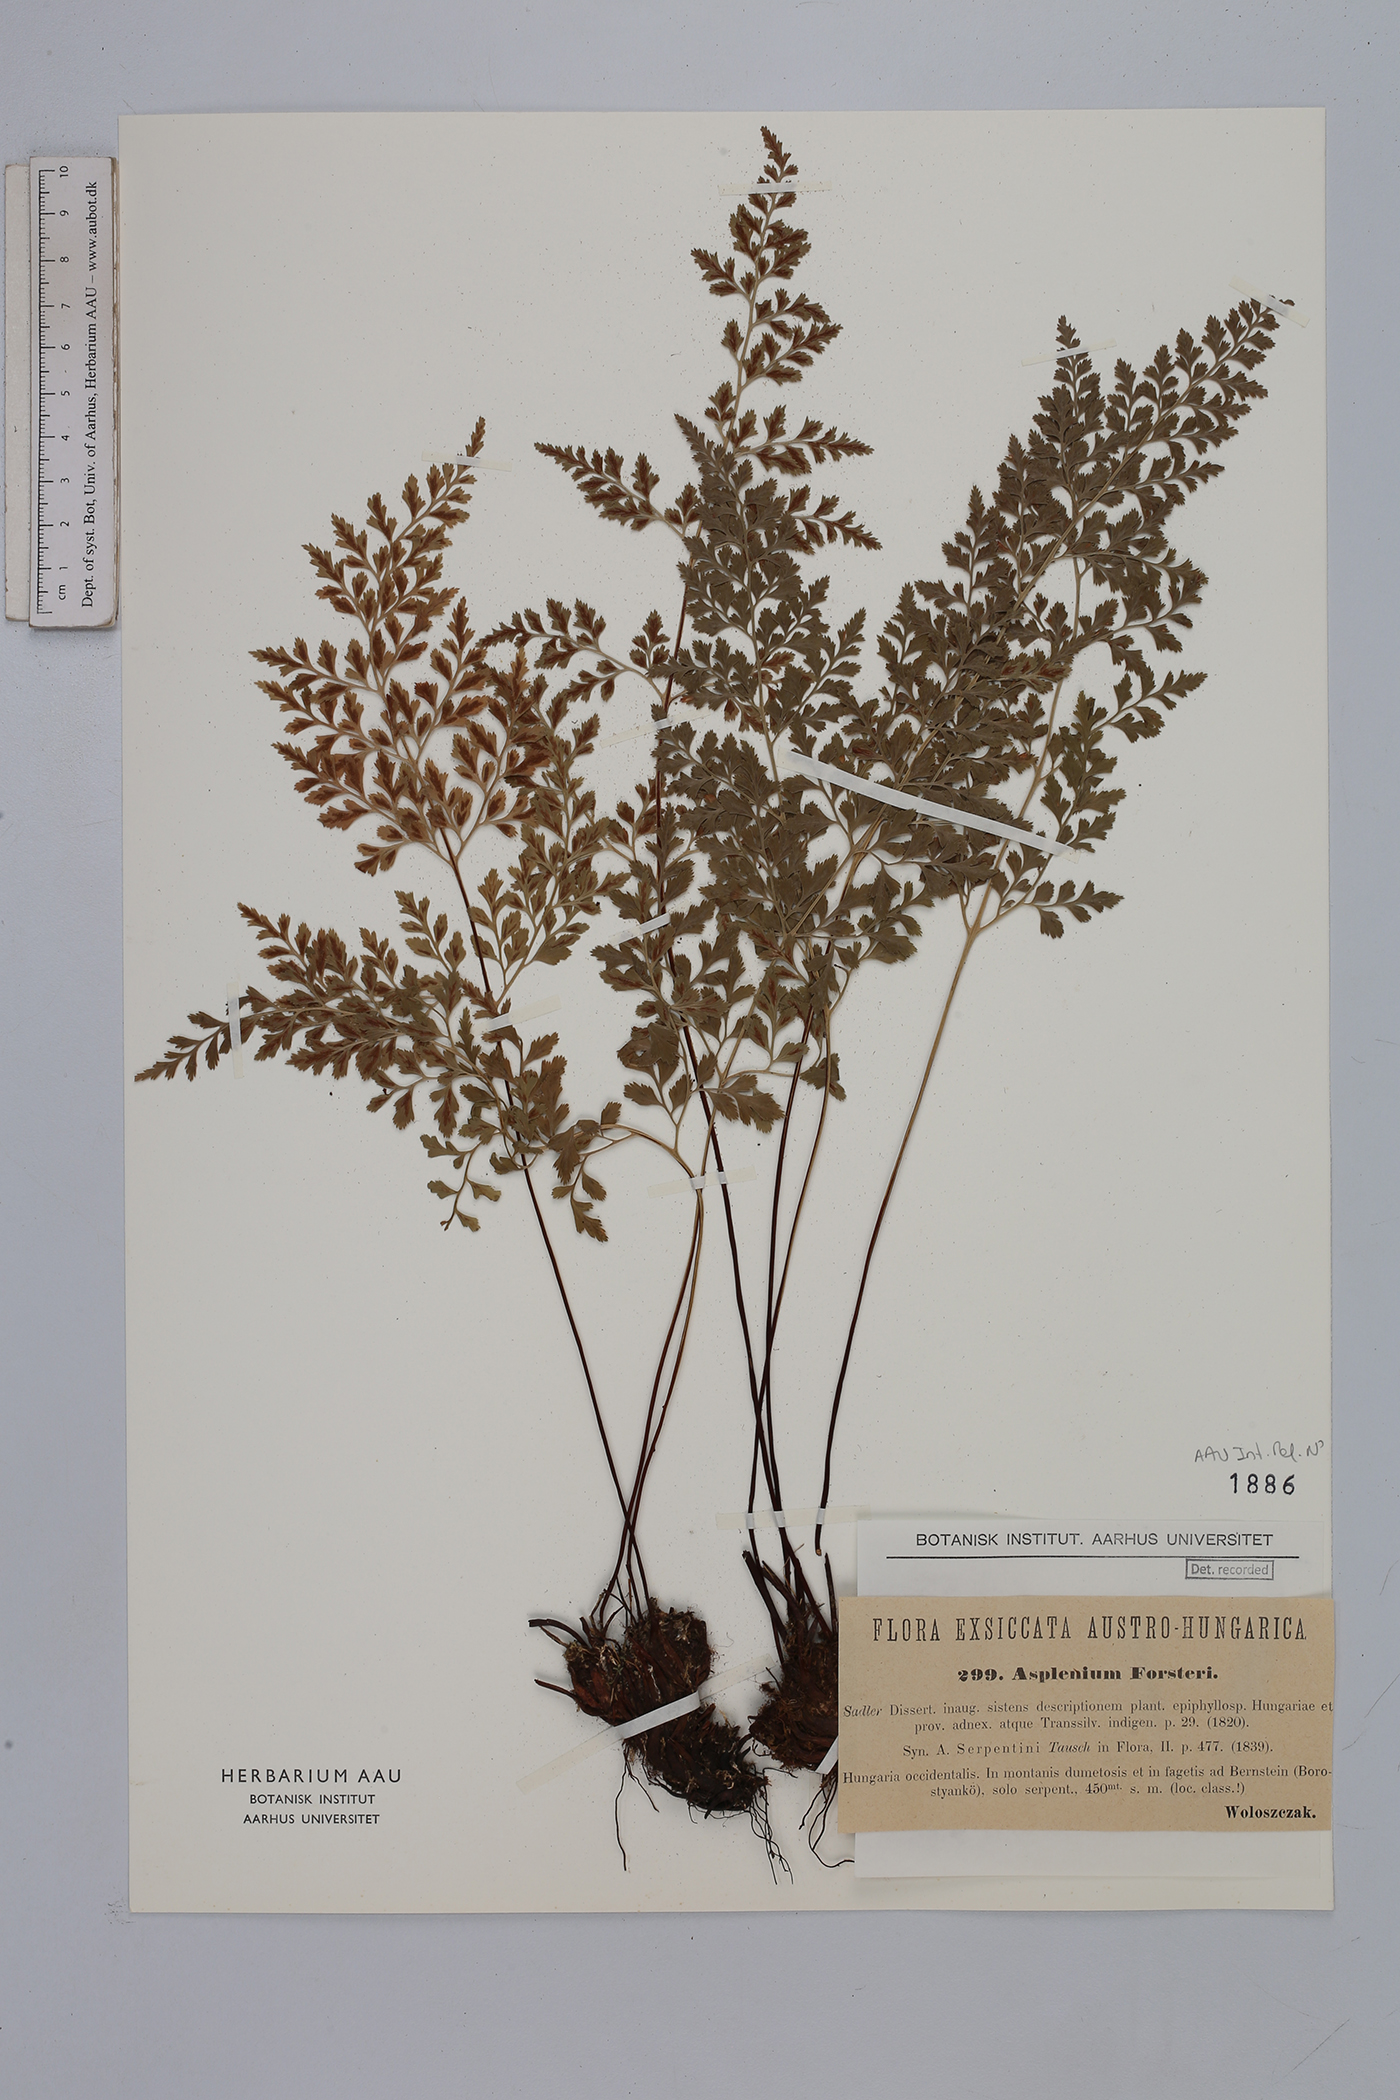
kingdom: Plantae
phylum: Tracheophyta
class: Polypodiopsida
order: Polypodiales
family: Aspleniaceae
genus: Asplenium
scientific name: Asplenium cuneifolium
